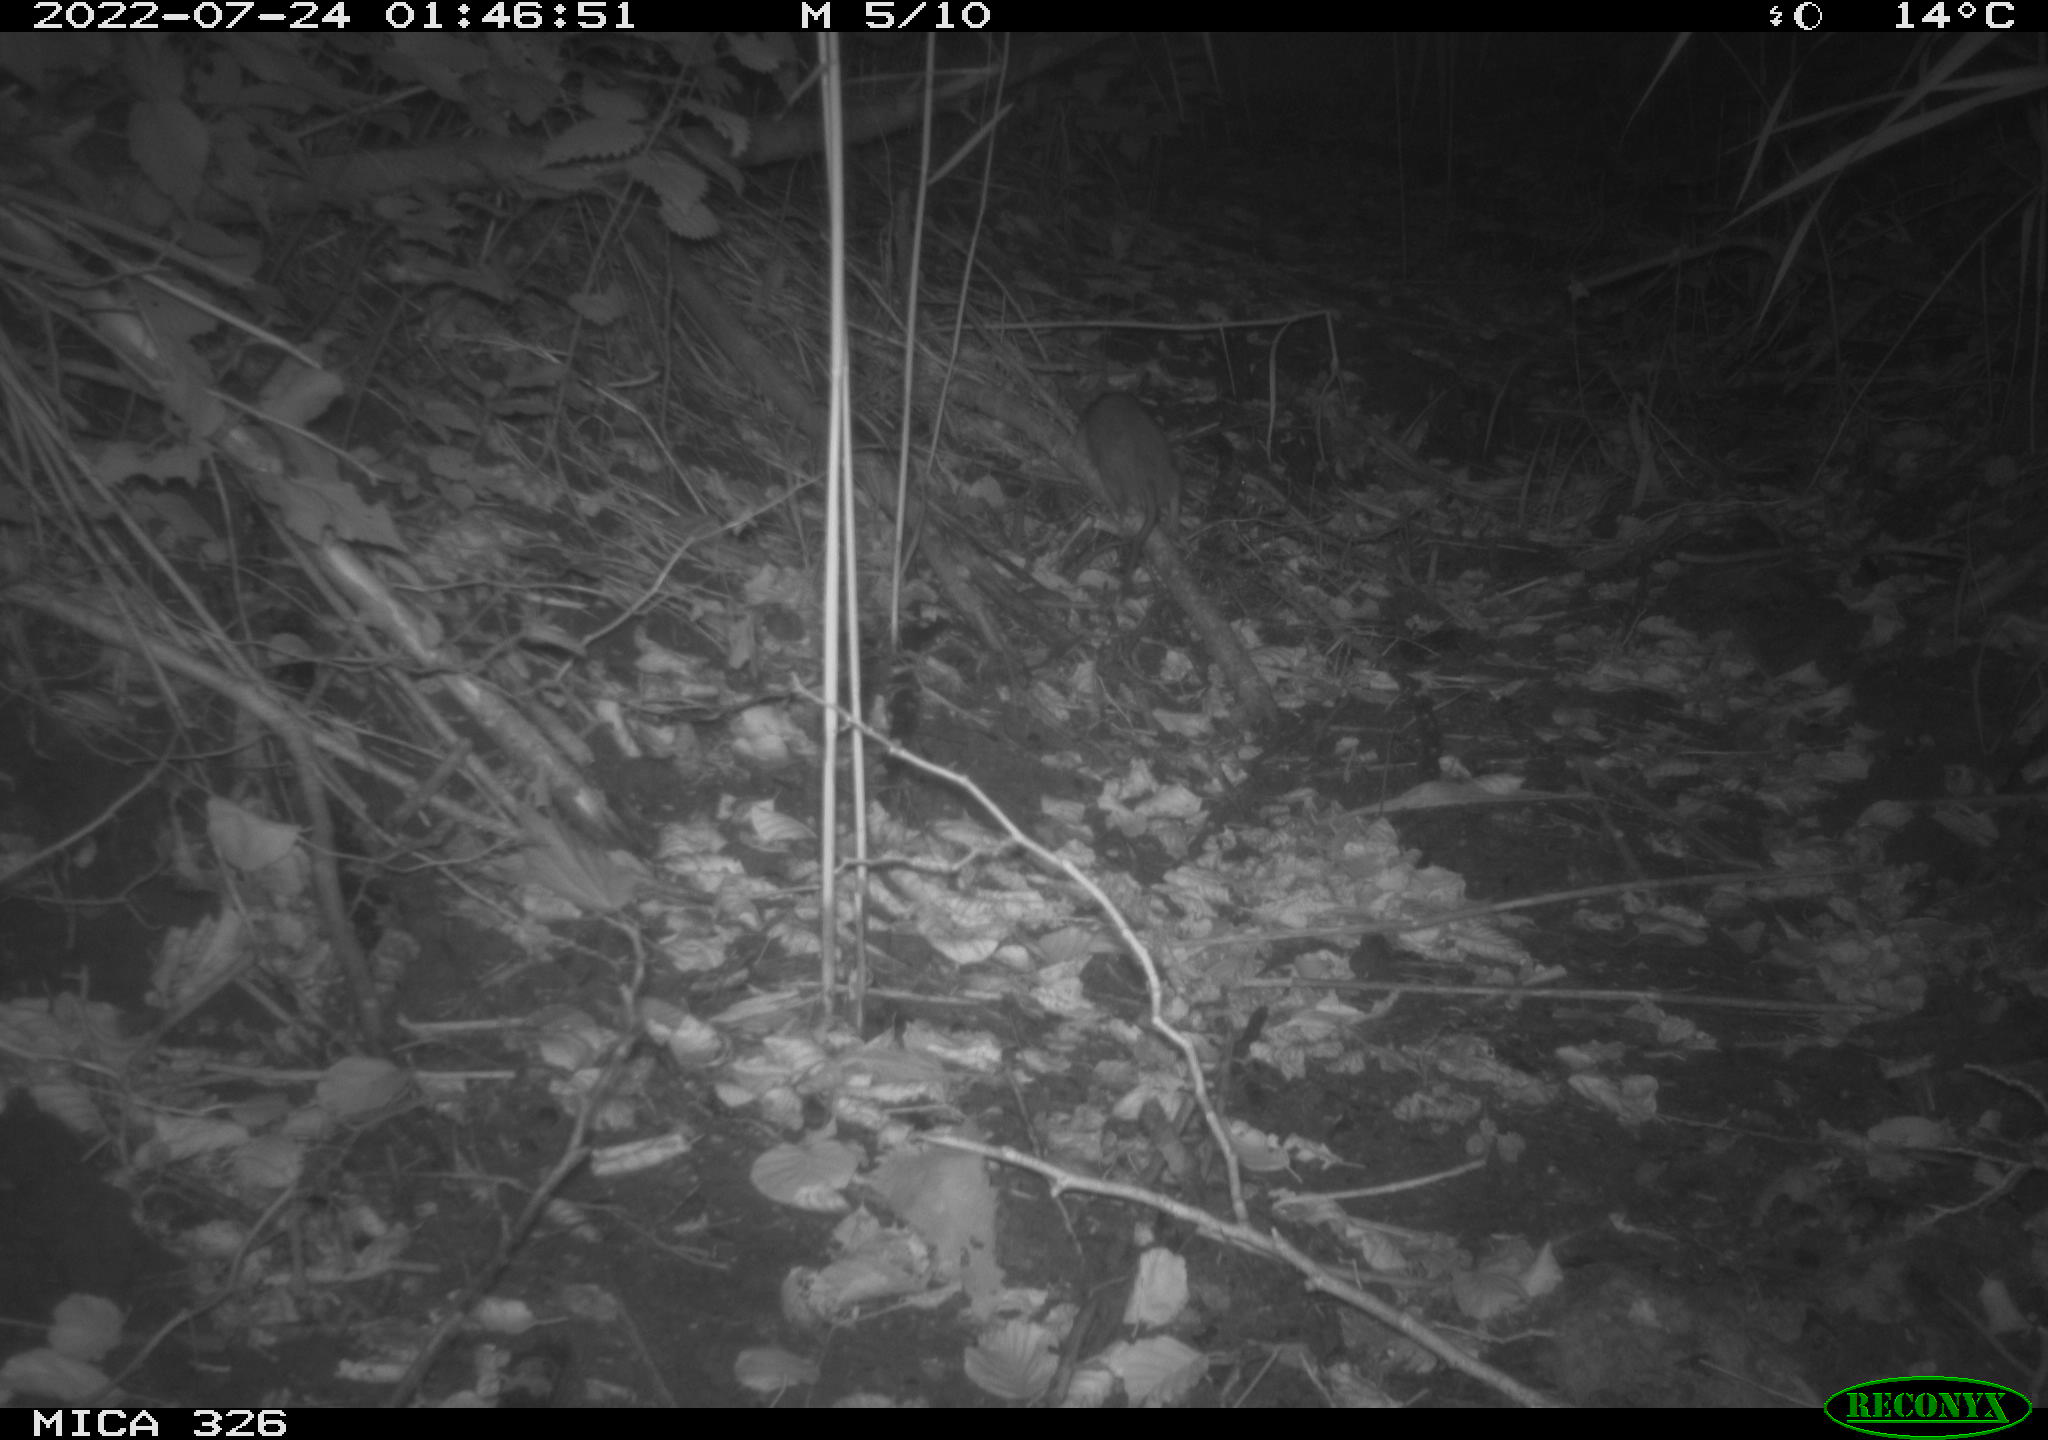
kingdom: Animalia
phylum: Chordata
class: Mammalia
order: Rodentia
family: Muridae
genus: Rattus
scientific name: Rattus norvegicus
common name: Brown rat
